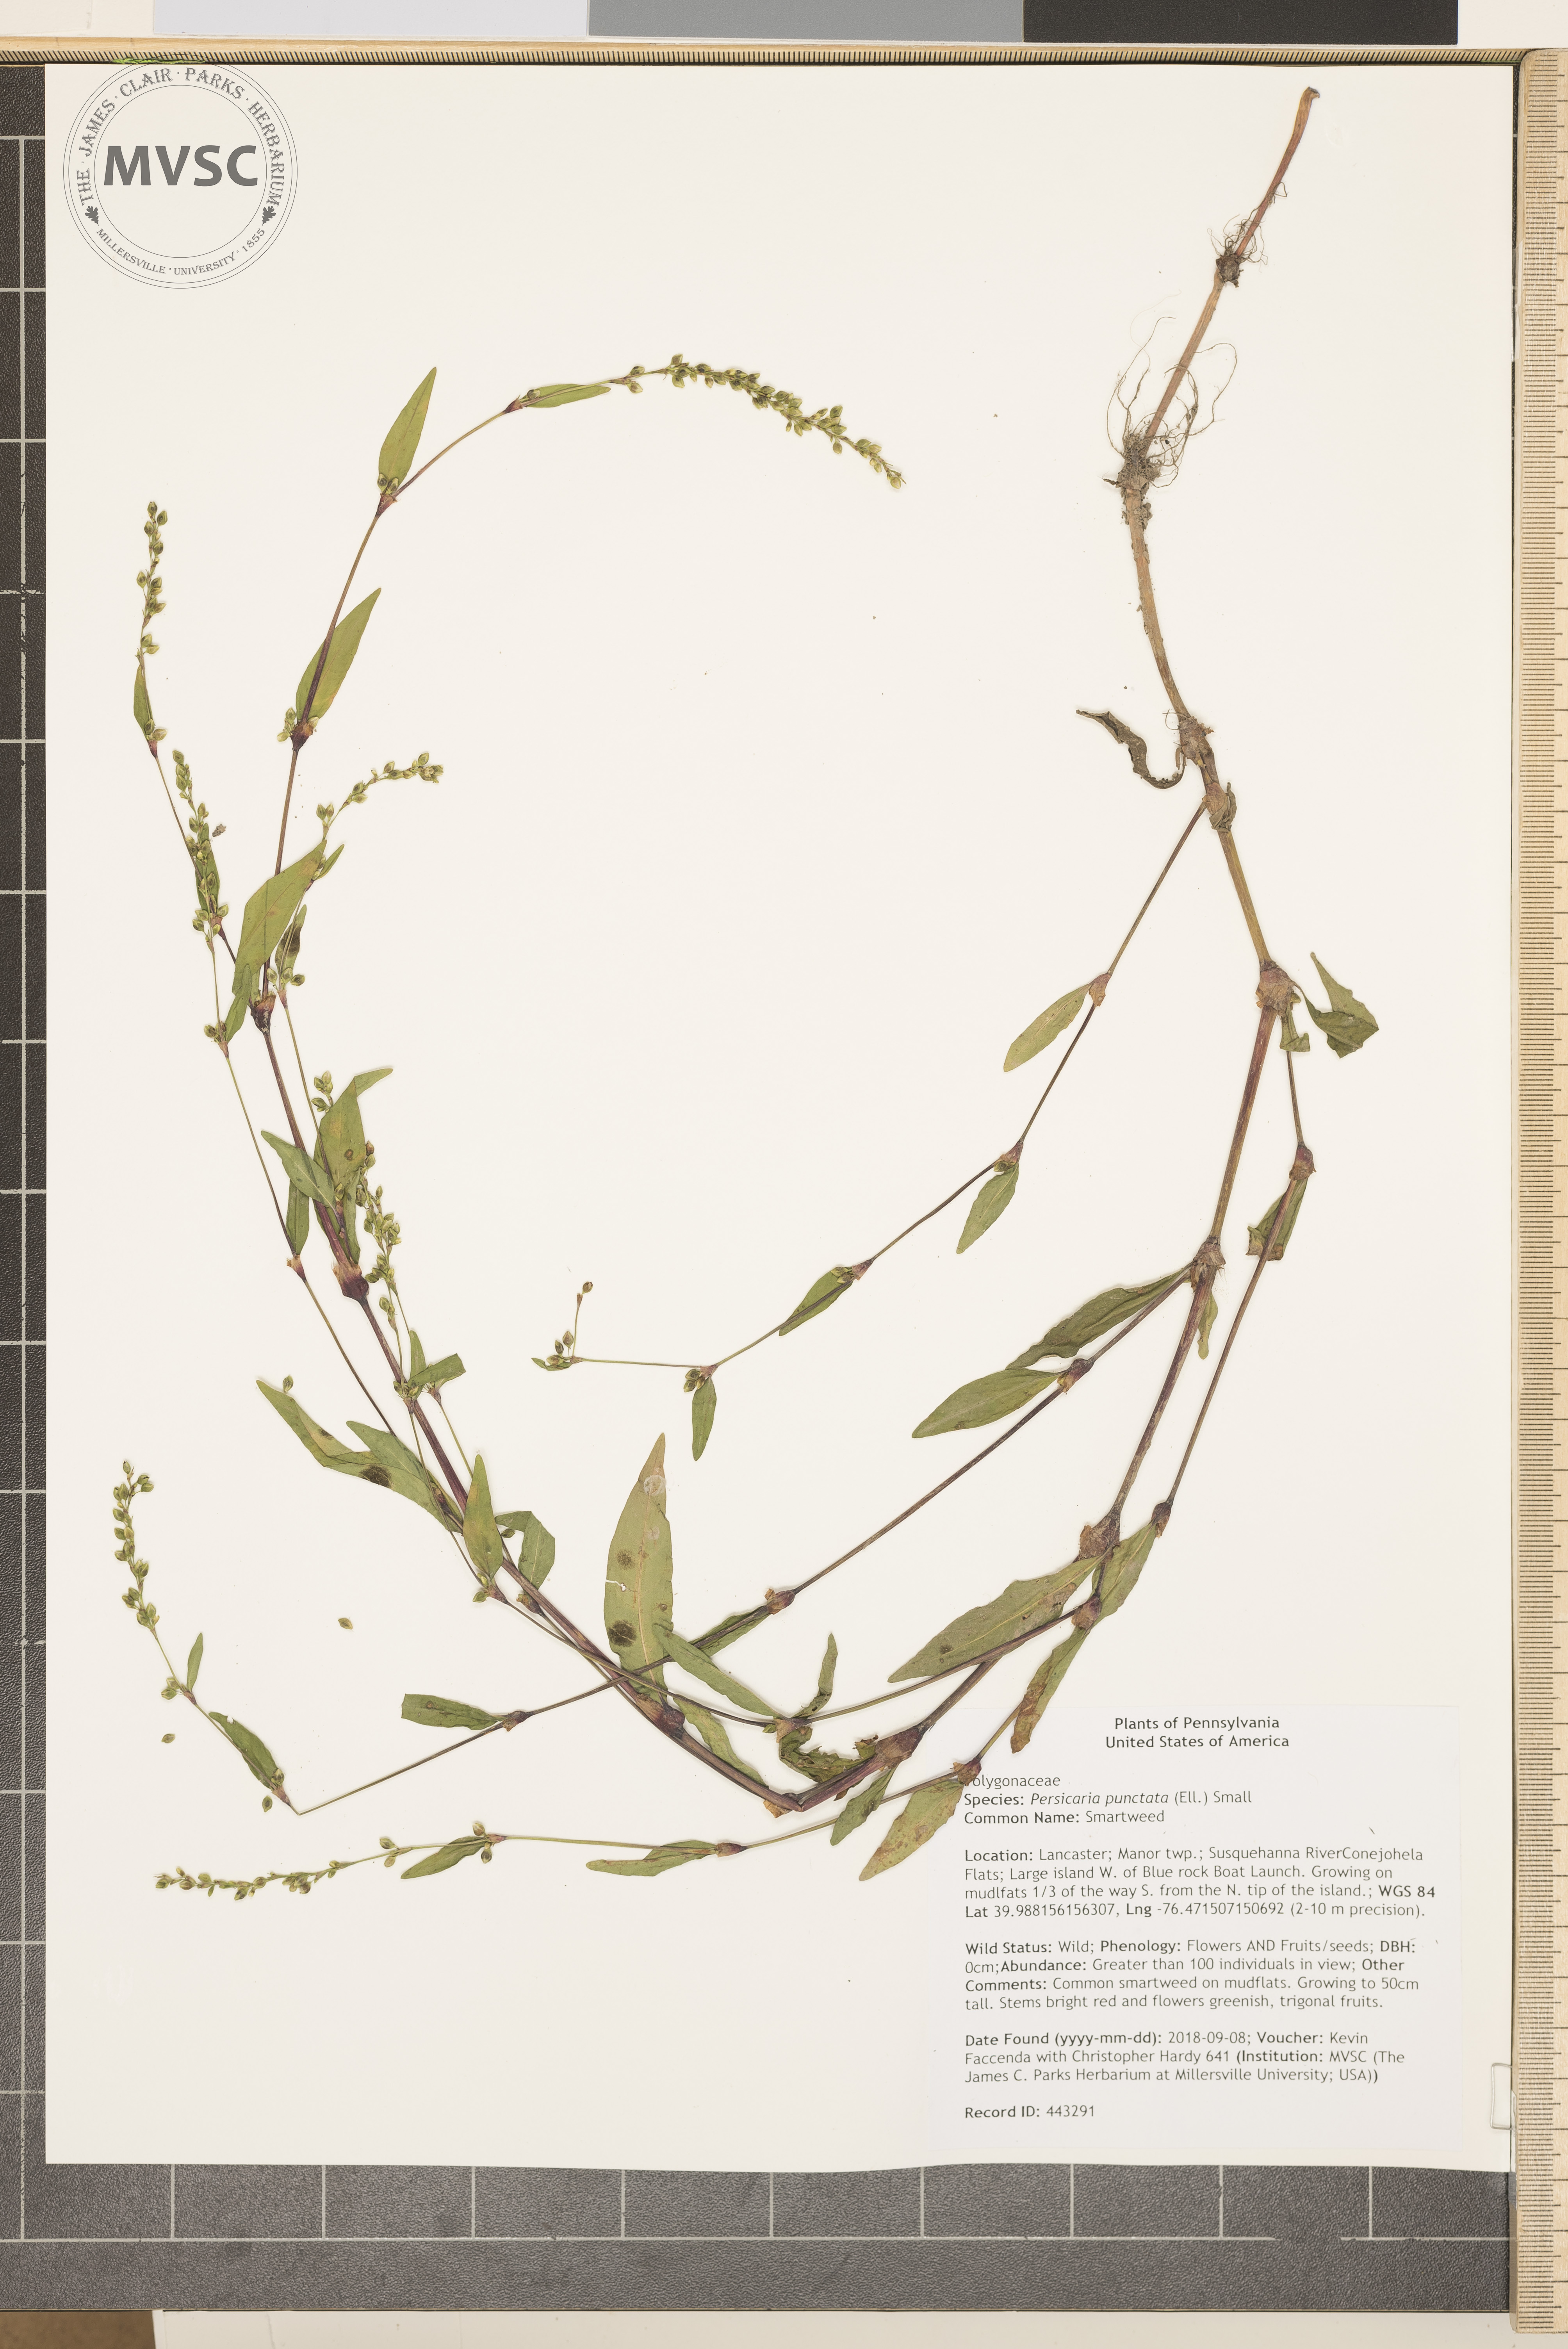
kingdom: Plantae
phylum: Tracheophyta
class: Magnoliopsida
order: Caryophyllales
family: Polygonaceae
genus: Persicaria
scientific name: Persicaria punctata
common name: Smartweed
